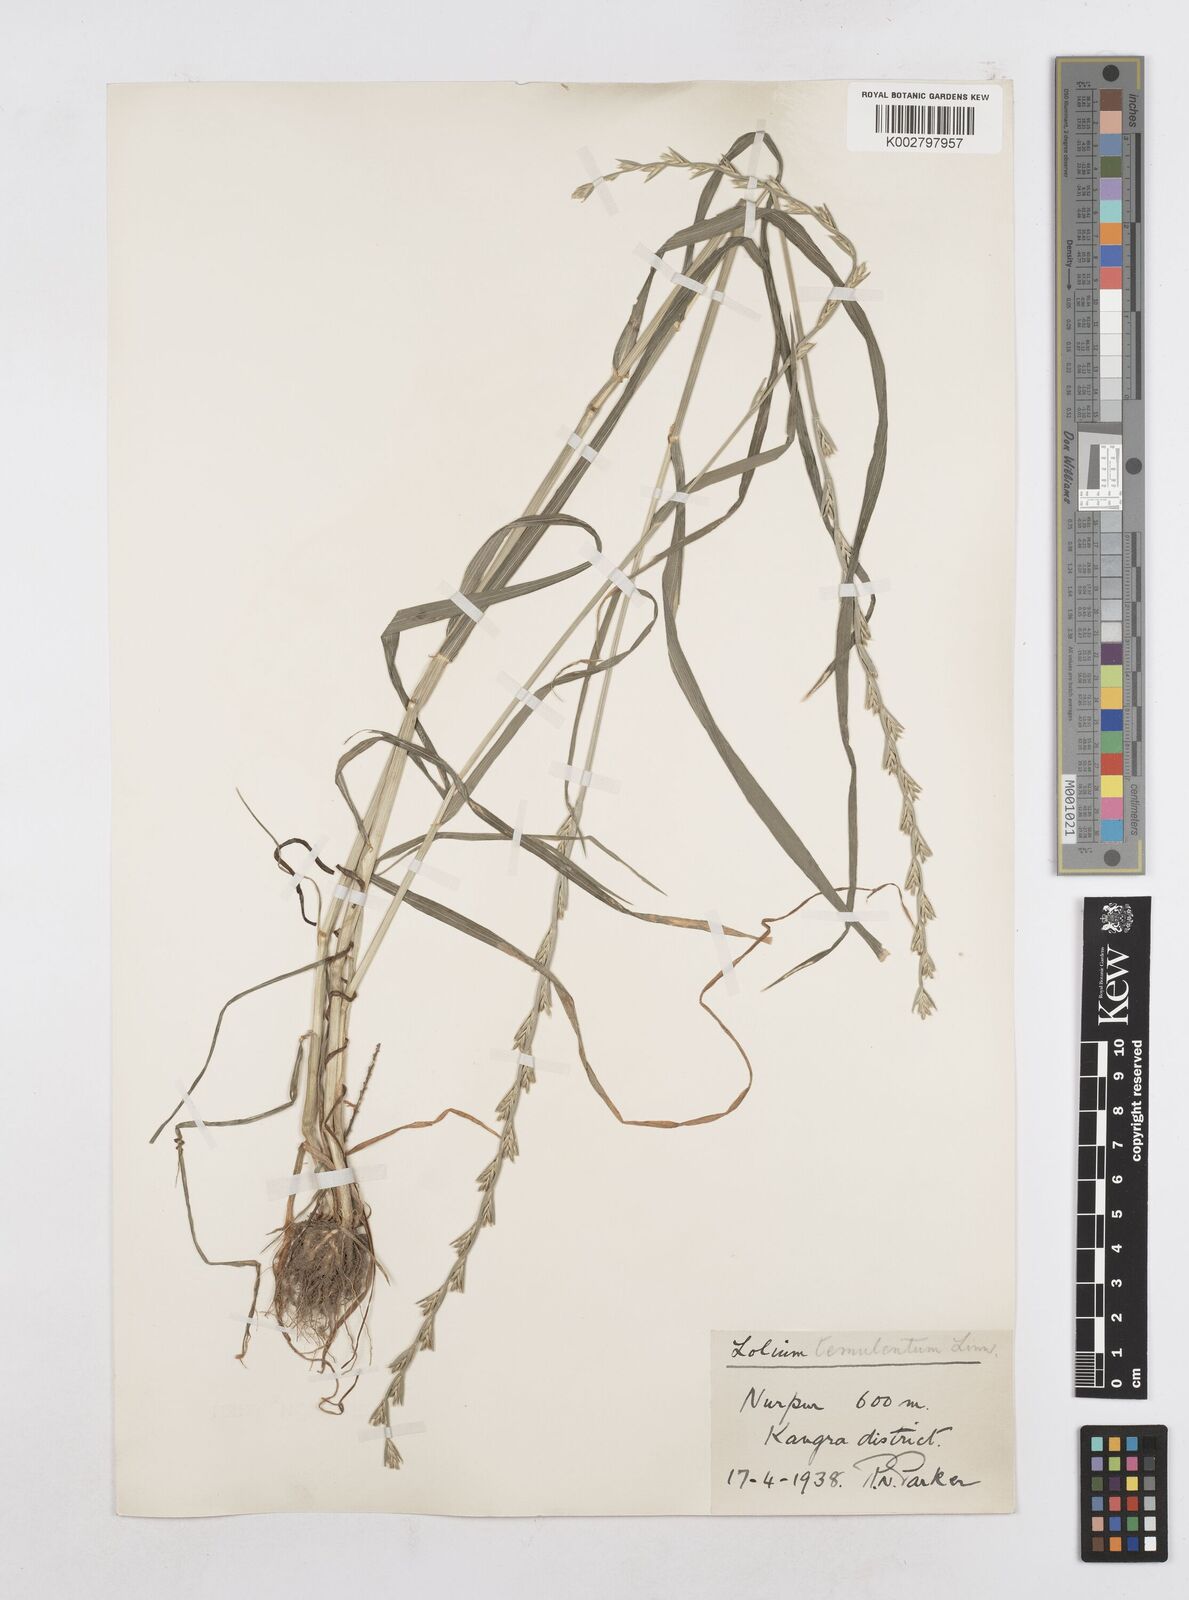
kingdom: Plantae
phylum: Tracheophyta
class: Liliopsida
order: Poales
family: Poaceae
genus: Lolium
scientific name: Lolium temulentum
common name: Darnel
